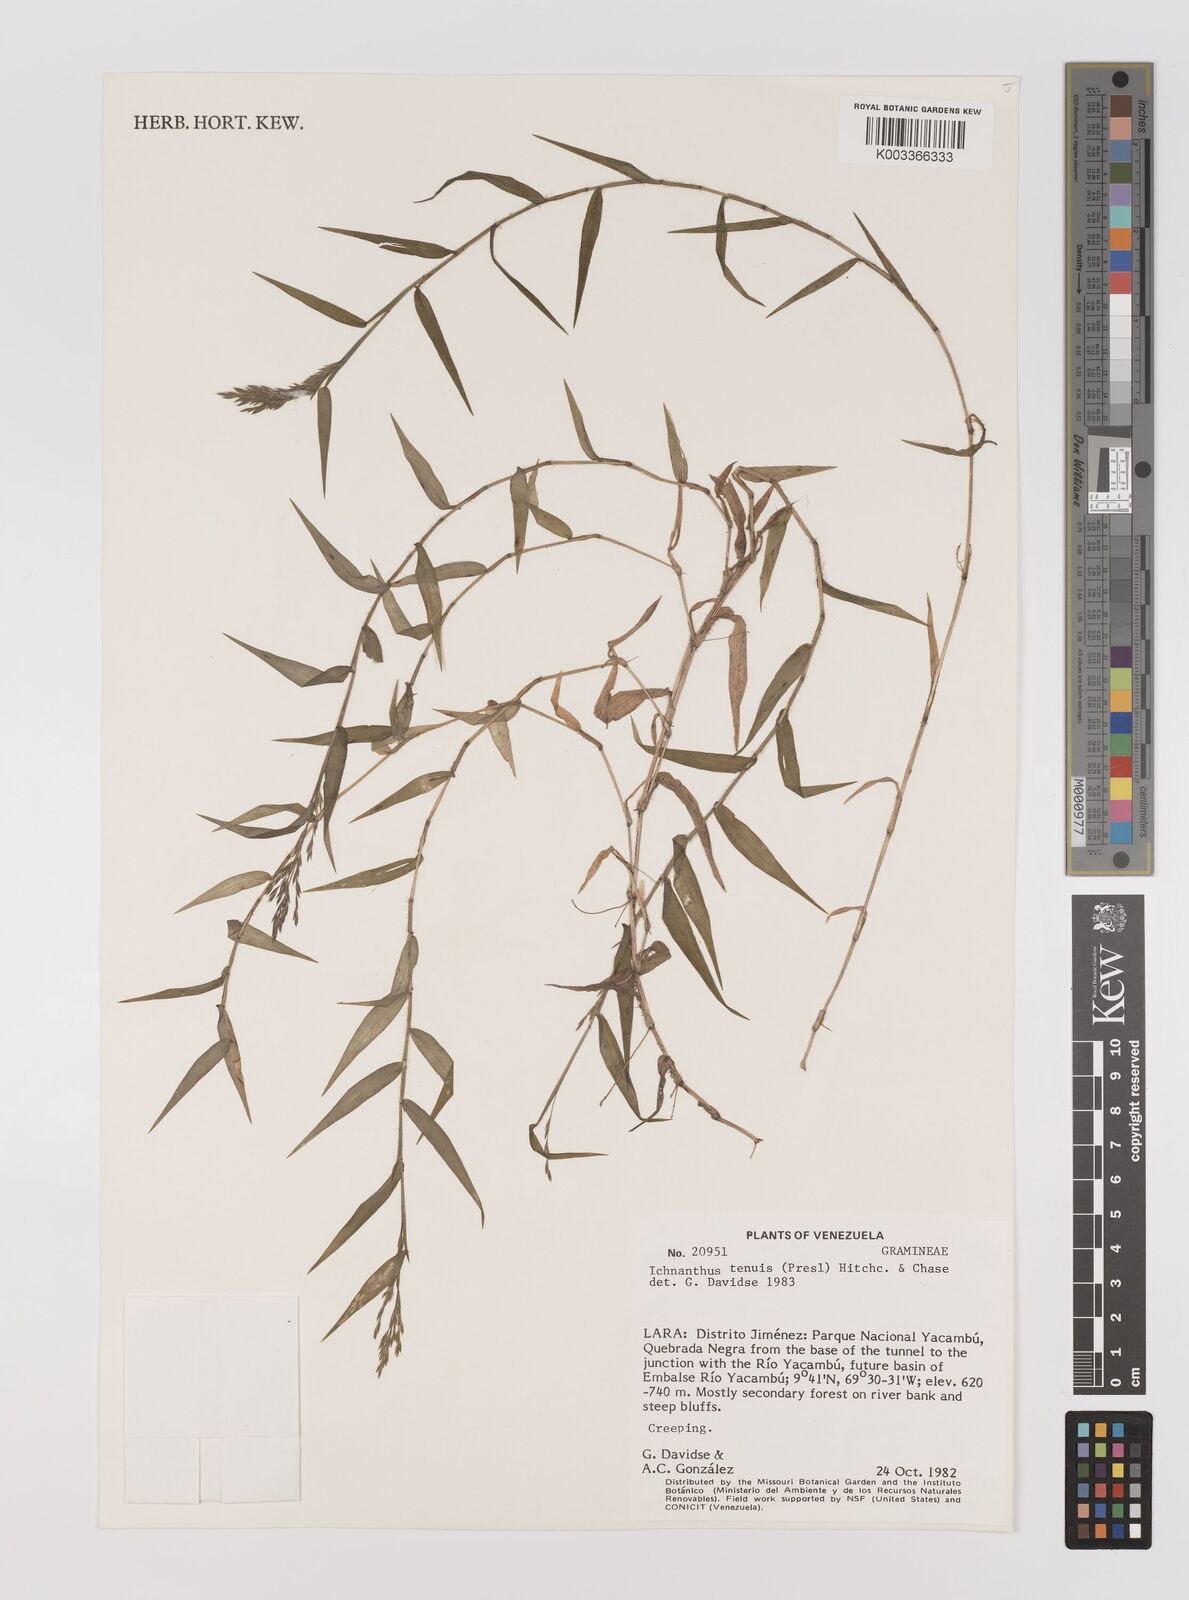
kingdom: Plantae
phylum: Tracheophyta
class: Liliopsida
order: Poales
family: Poaceae
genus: Ichnanthus
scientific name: Ichnanthus tenuis
